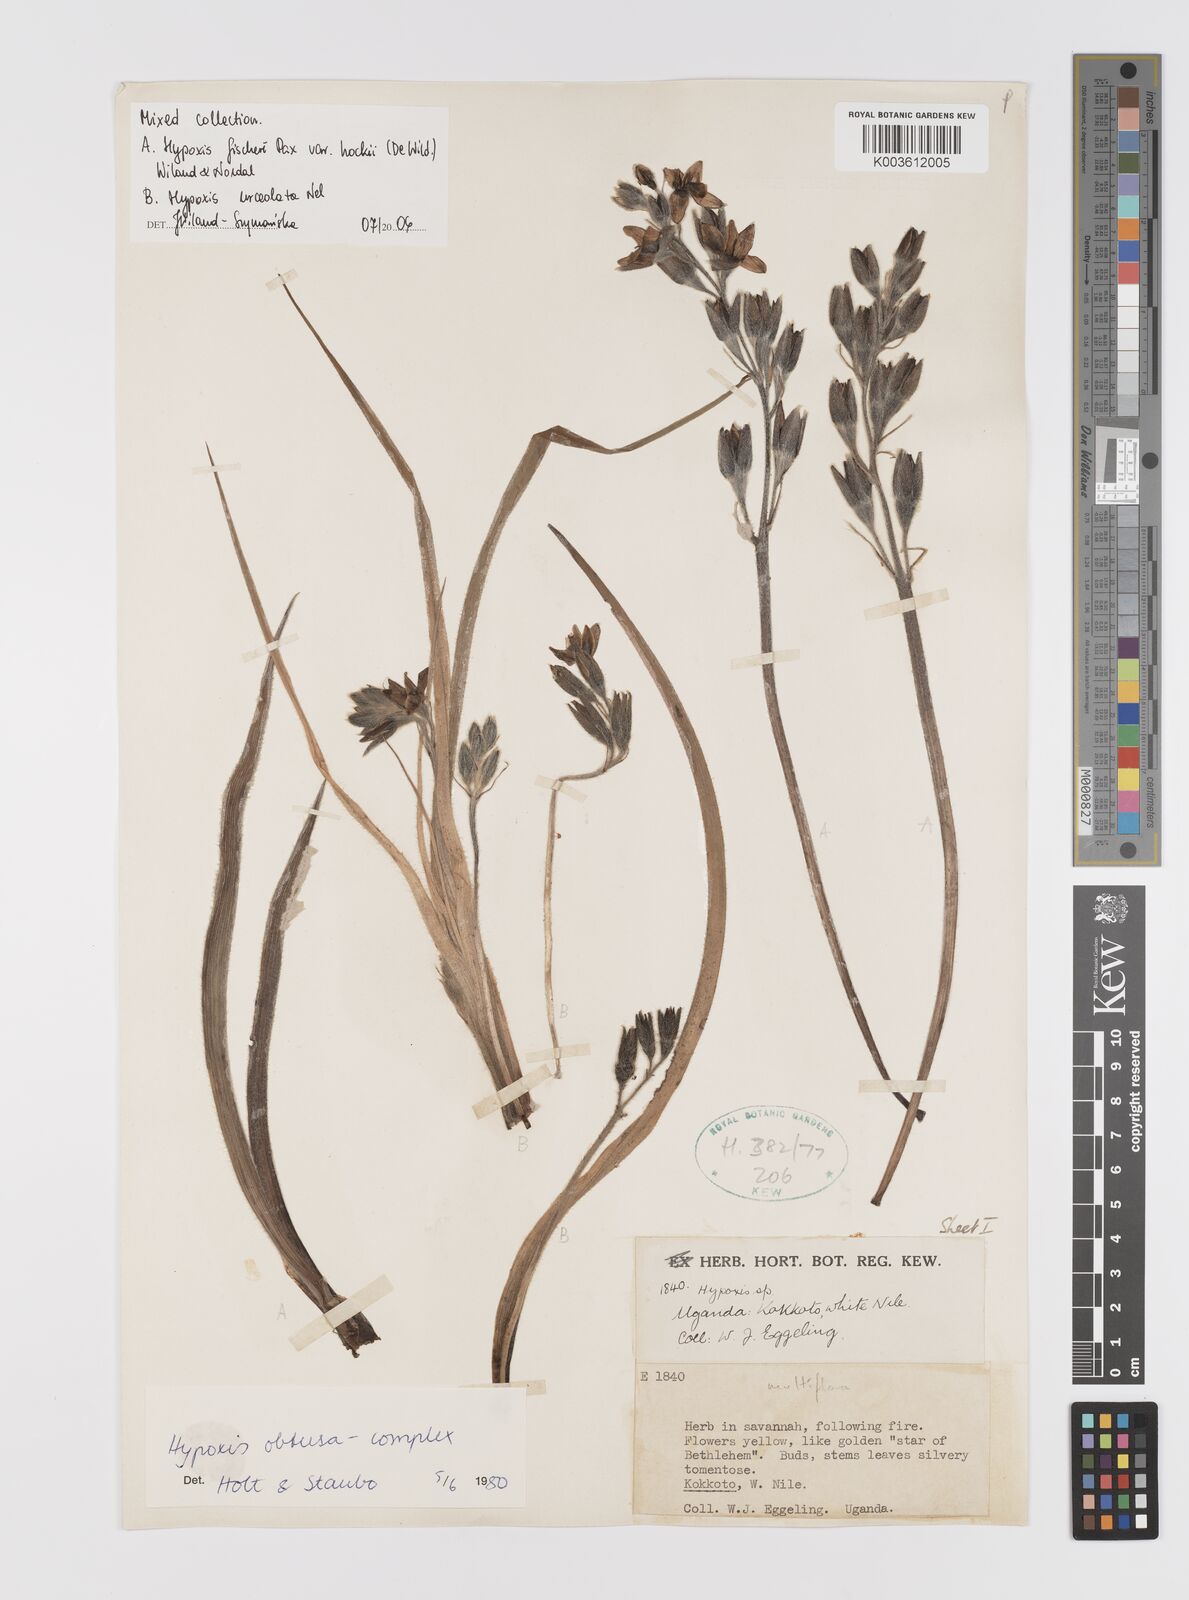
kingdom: Plantae
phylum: Tracheophyta
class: Liliopsida
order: Asparagales
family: Hypoxidaceae
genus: Hypoxis
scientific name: Hypoxis fischeri
